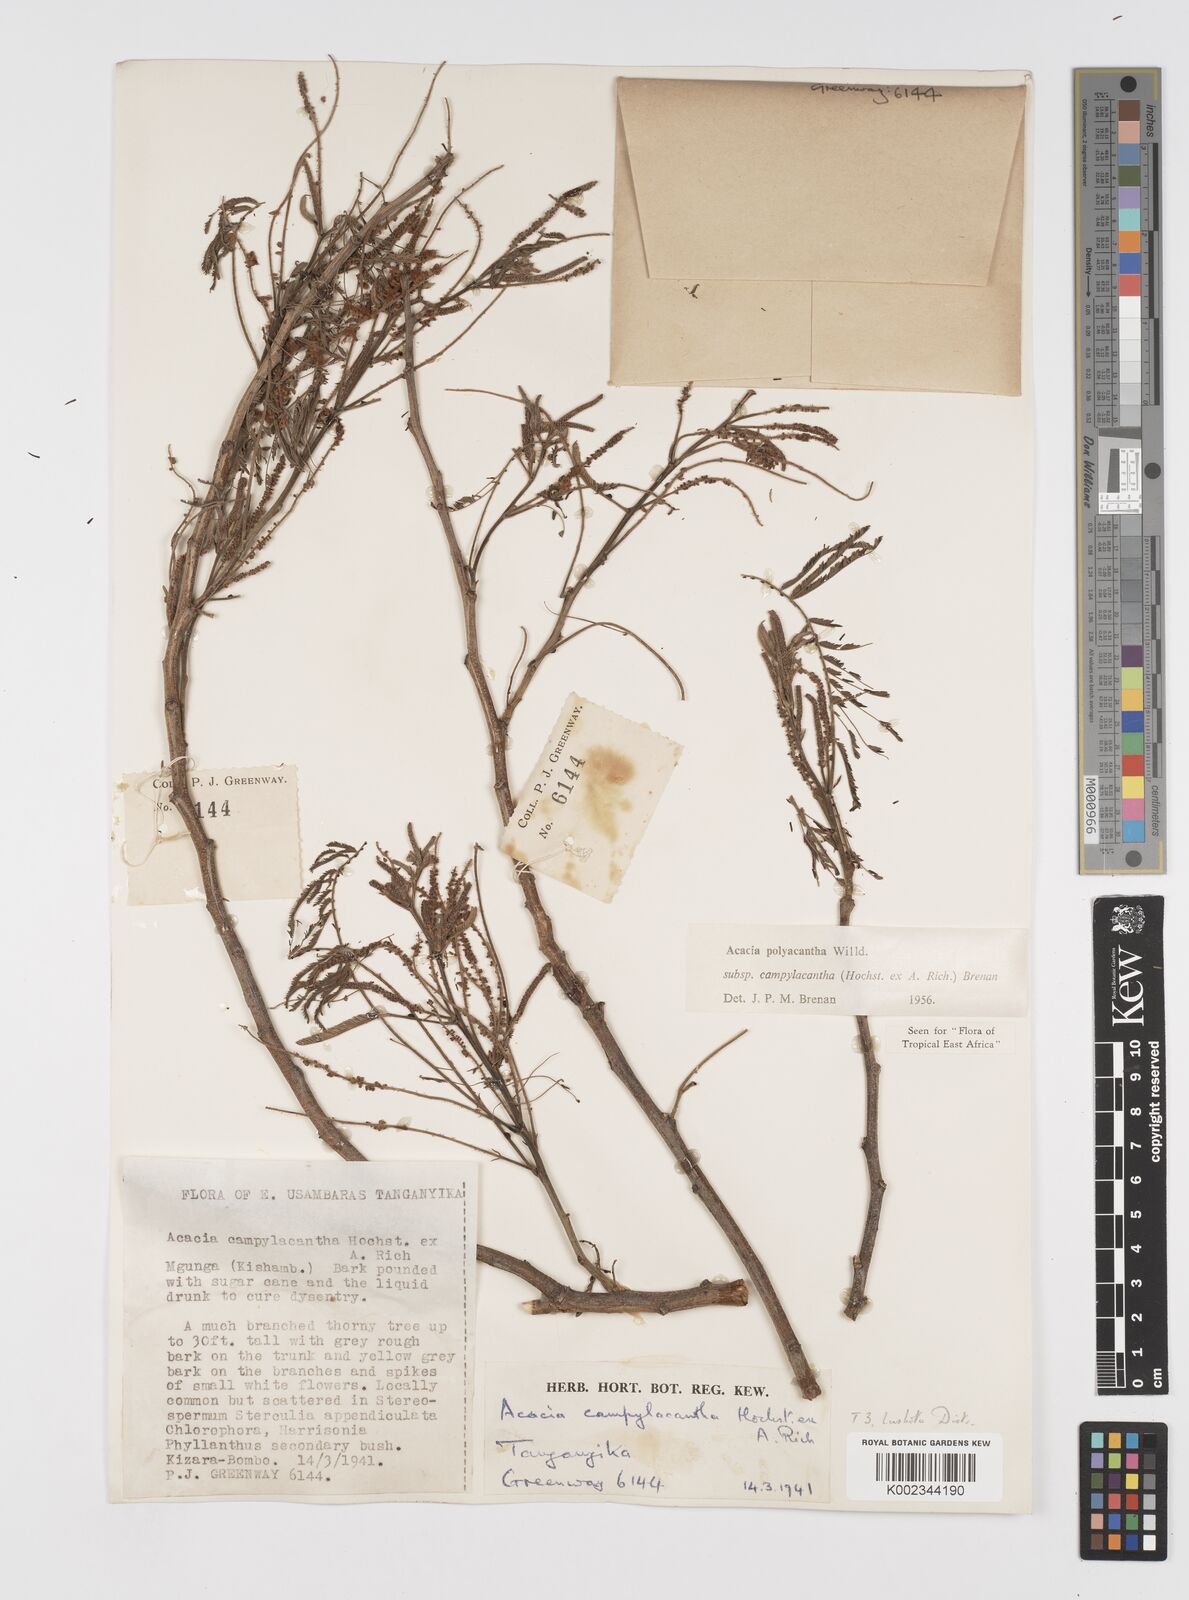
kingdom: Plantae
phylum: Tracheophyta
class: Magnoliopsida
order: Fabales
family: Fabaceae
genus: Senegalia
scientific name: Senegalia polyacantha
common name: Whitethorn
